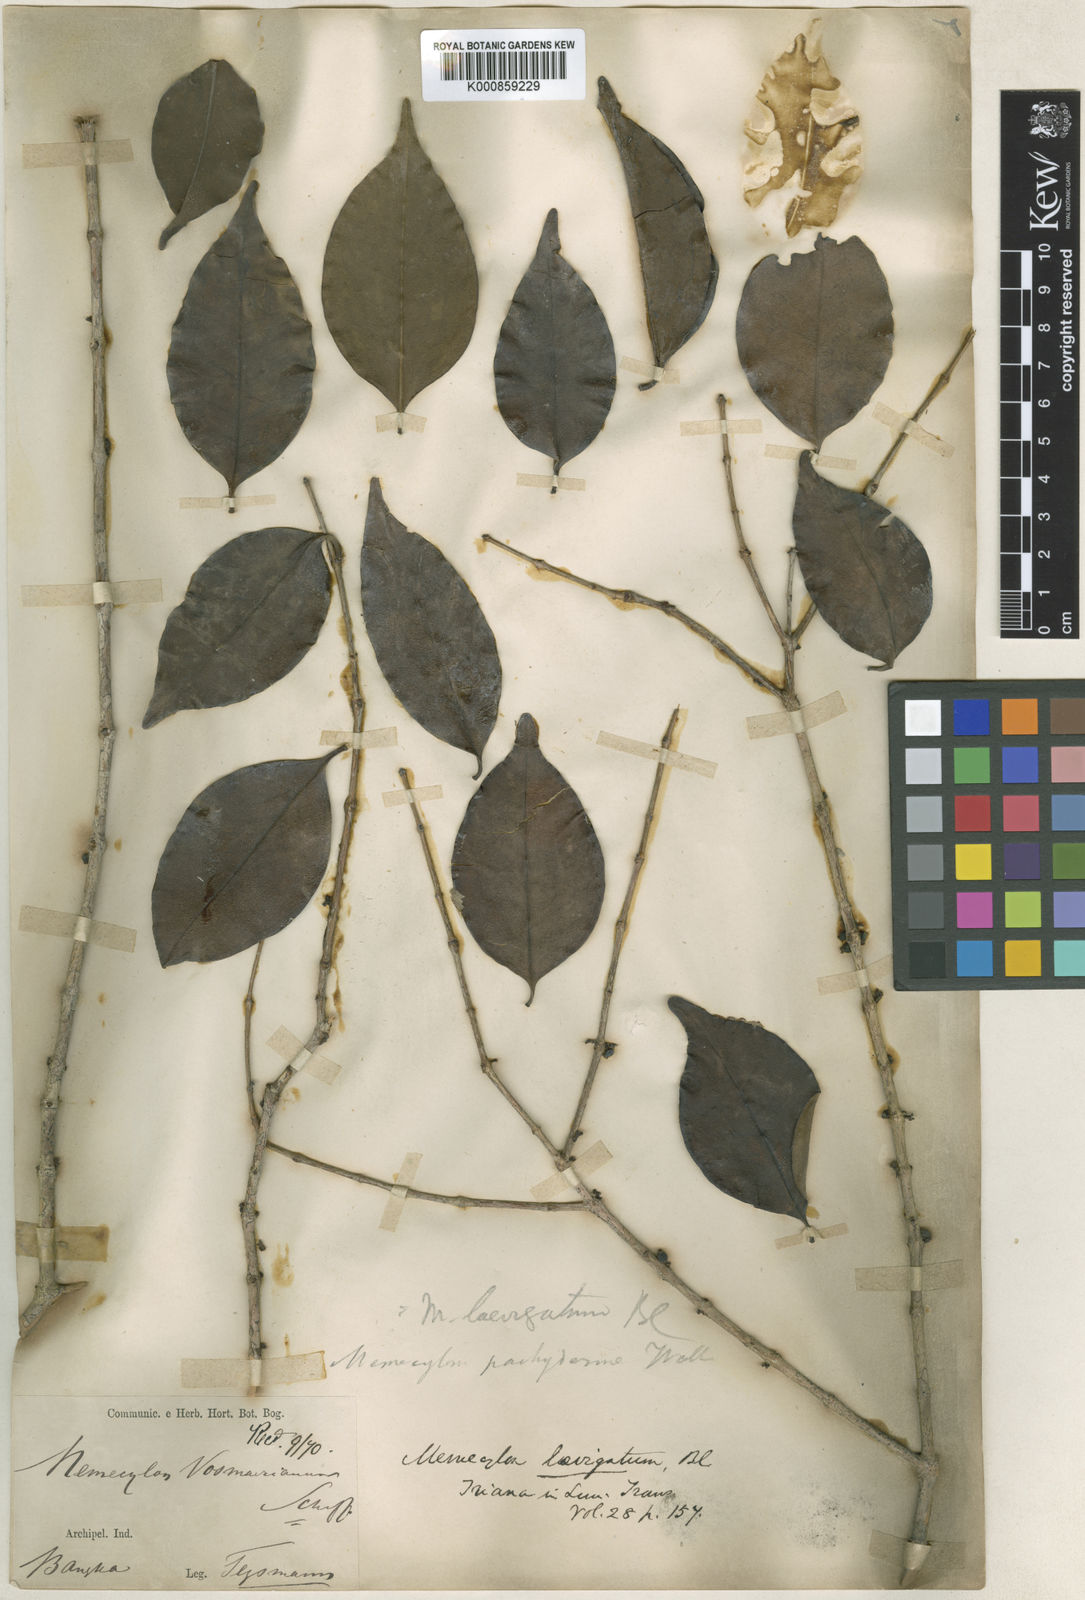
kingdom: Plantae
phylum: Tracheophyta
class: Magnoliopsida
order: Myrtales
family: Melastomataceae
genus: Memecylon
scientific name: Memecylon lilacinum
